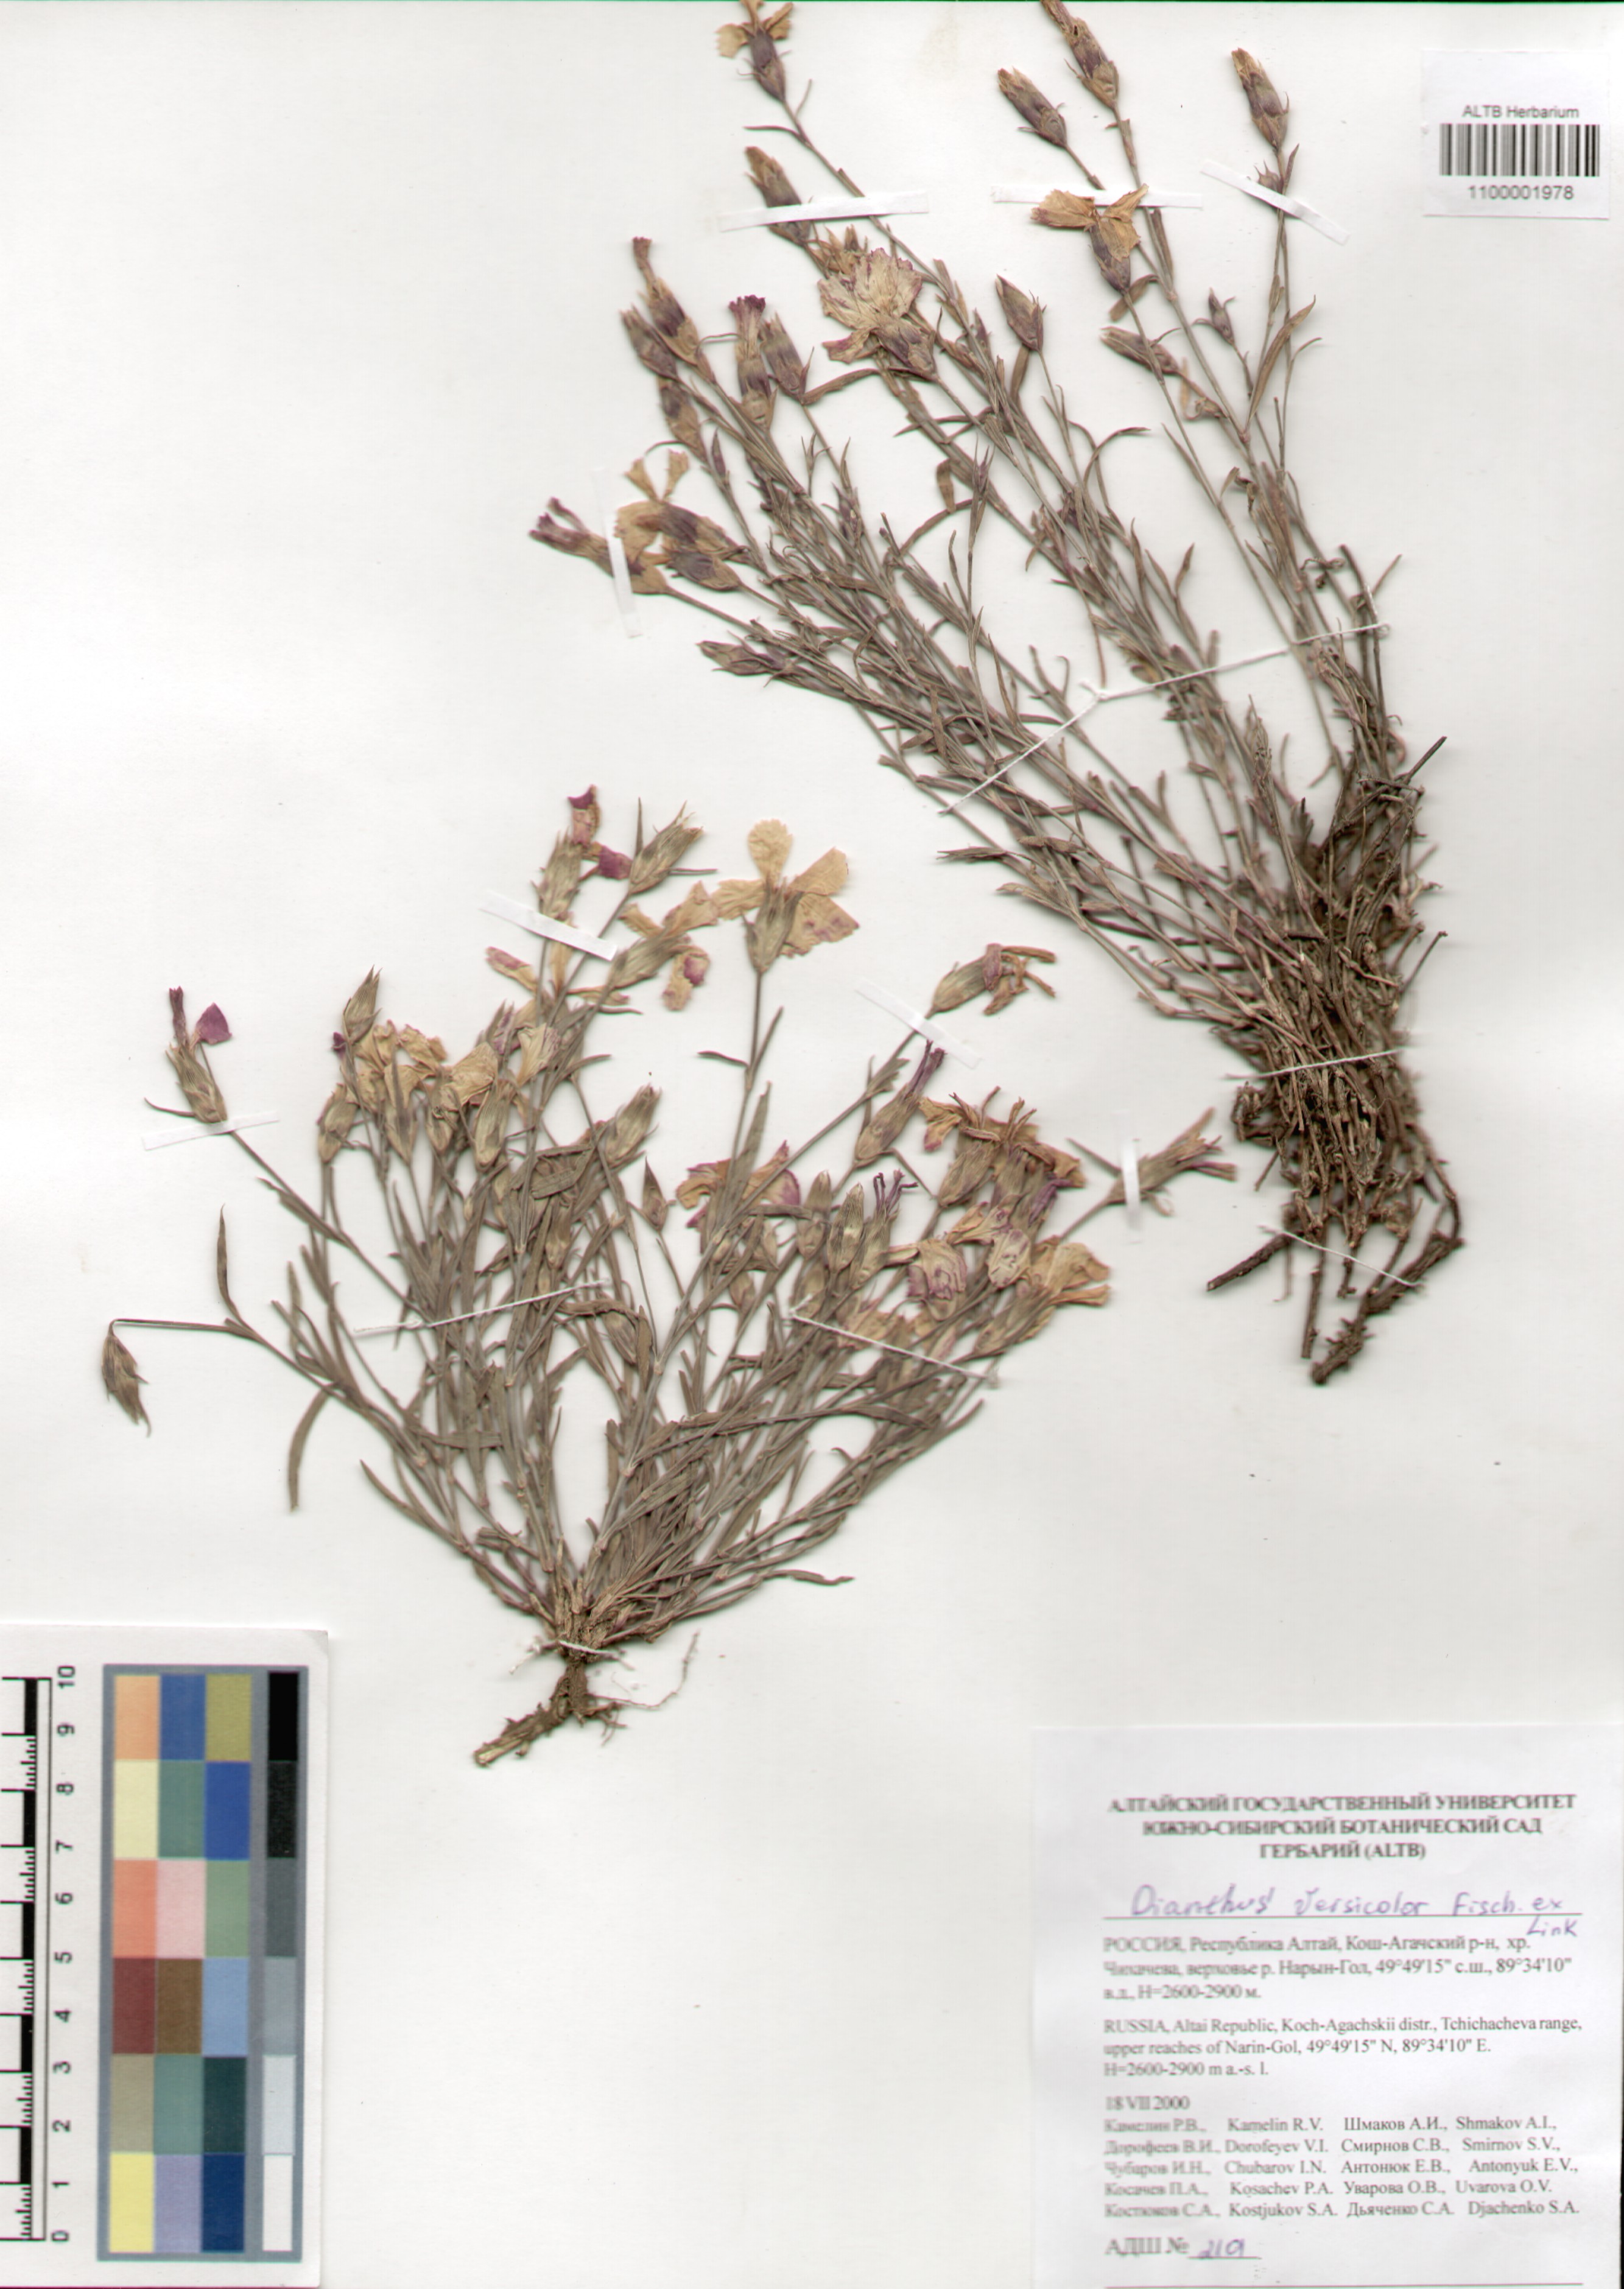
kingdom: Plantae
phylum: Tracheophyta
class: Magnoliopsida
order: Caryophyllales
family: Caryophyllaceae
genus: Dianthus
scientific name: Dianthus chinensis
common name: Rainbow pink
